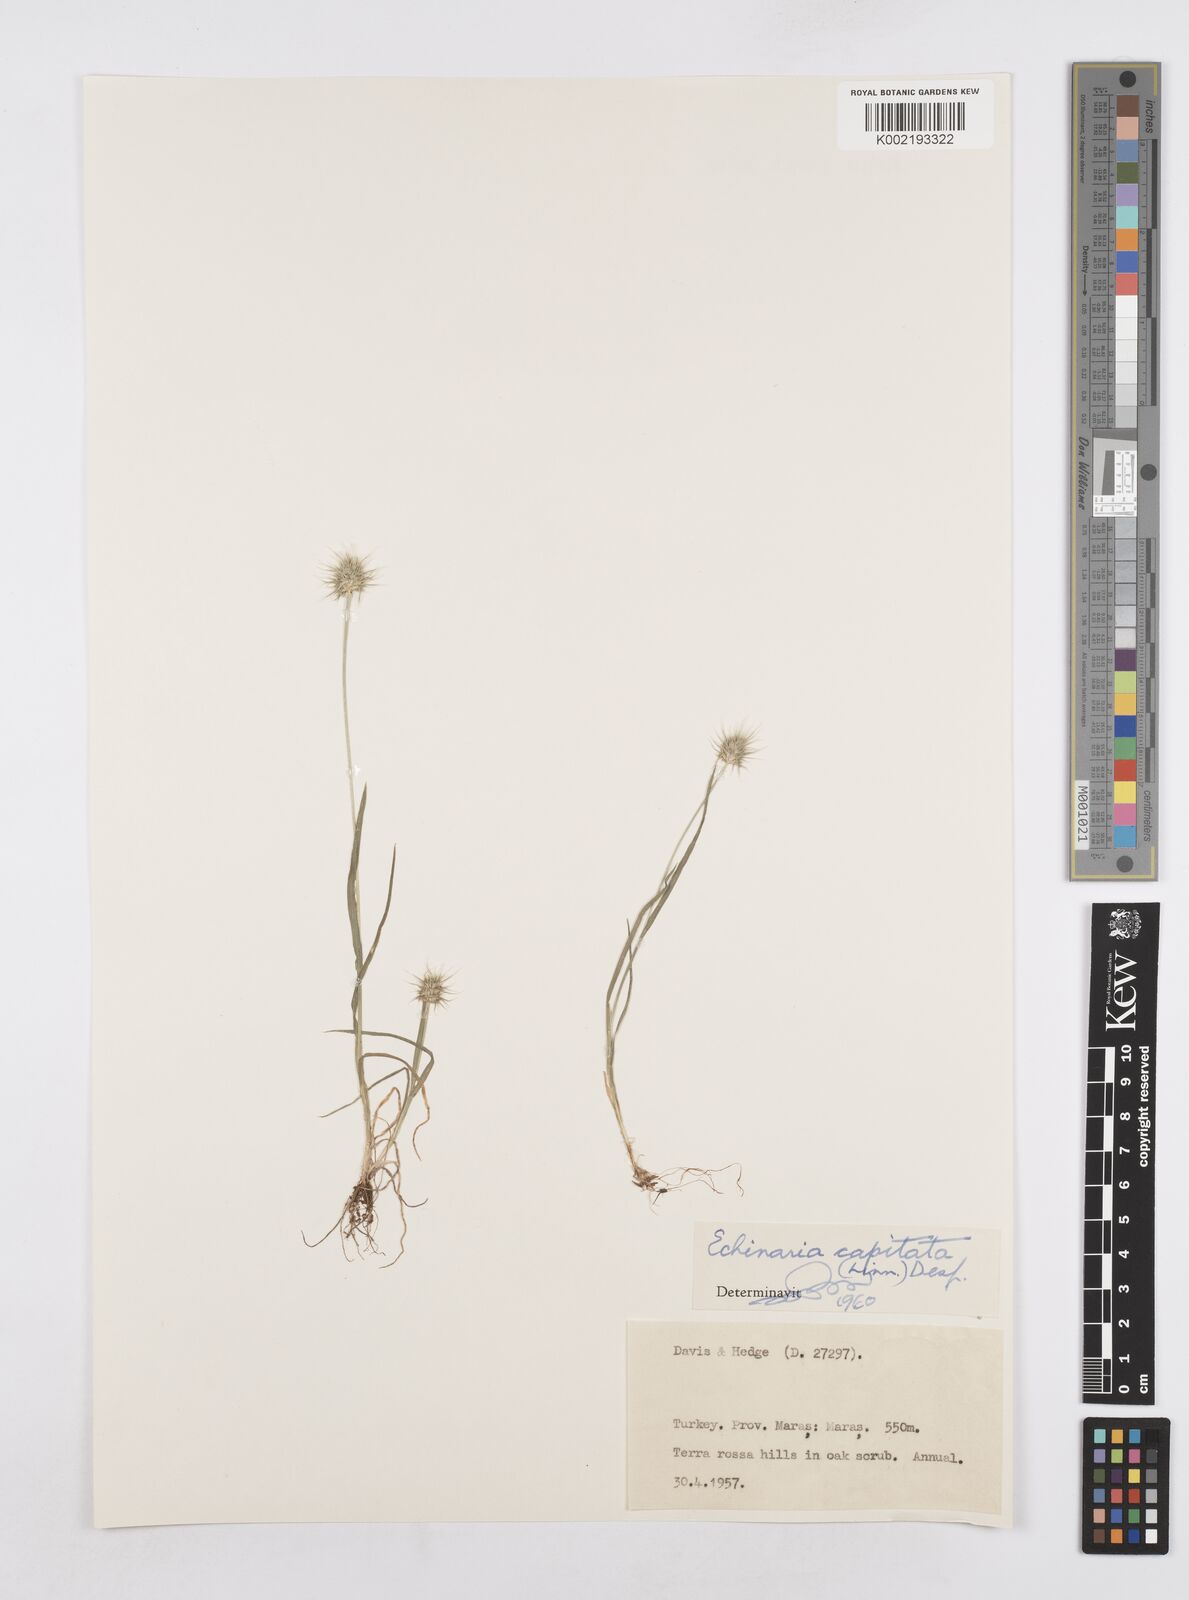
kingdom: Plantae
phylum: Tracheophyta
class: Liliopsida
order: Poales
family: Poaceae
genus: Echinaria
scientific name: Echinaria capitata
